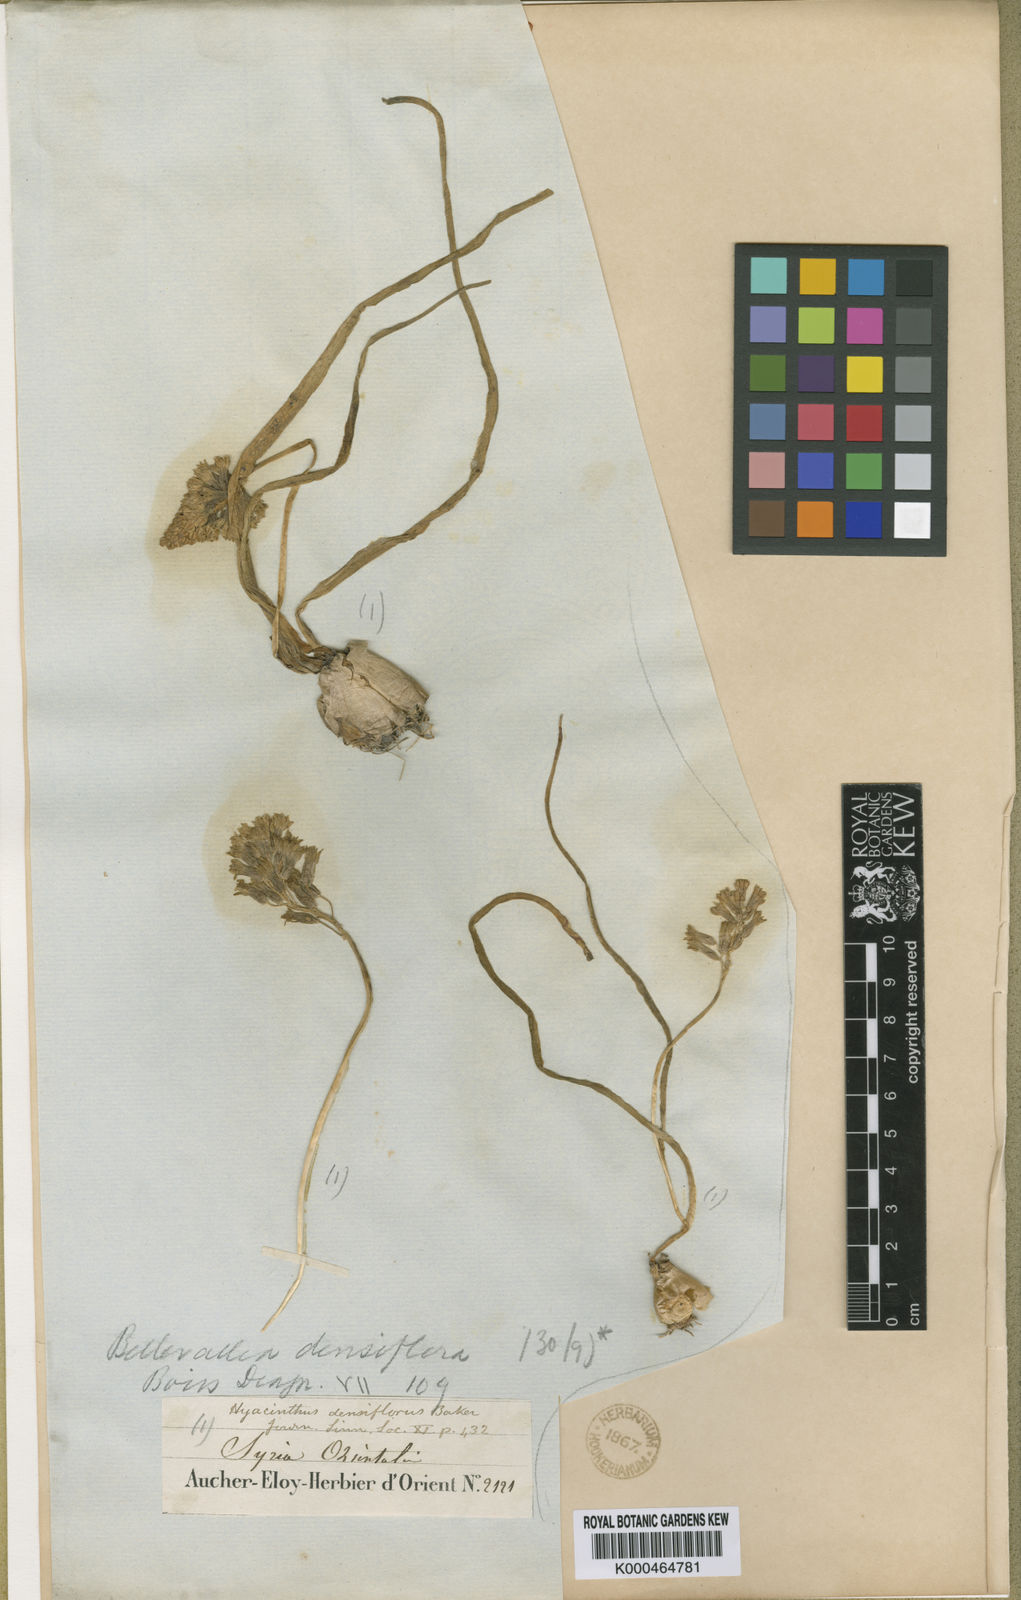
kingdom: Plantae
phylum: Tracheophyta
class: Liliopsida
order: Asparagales
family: Asparagaceae
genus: Bellevalia
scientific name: Bellevalia densiflora
